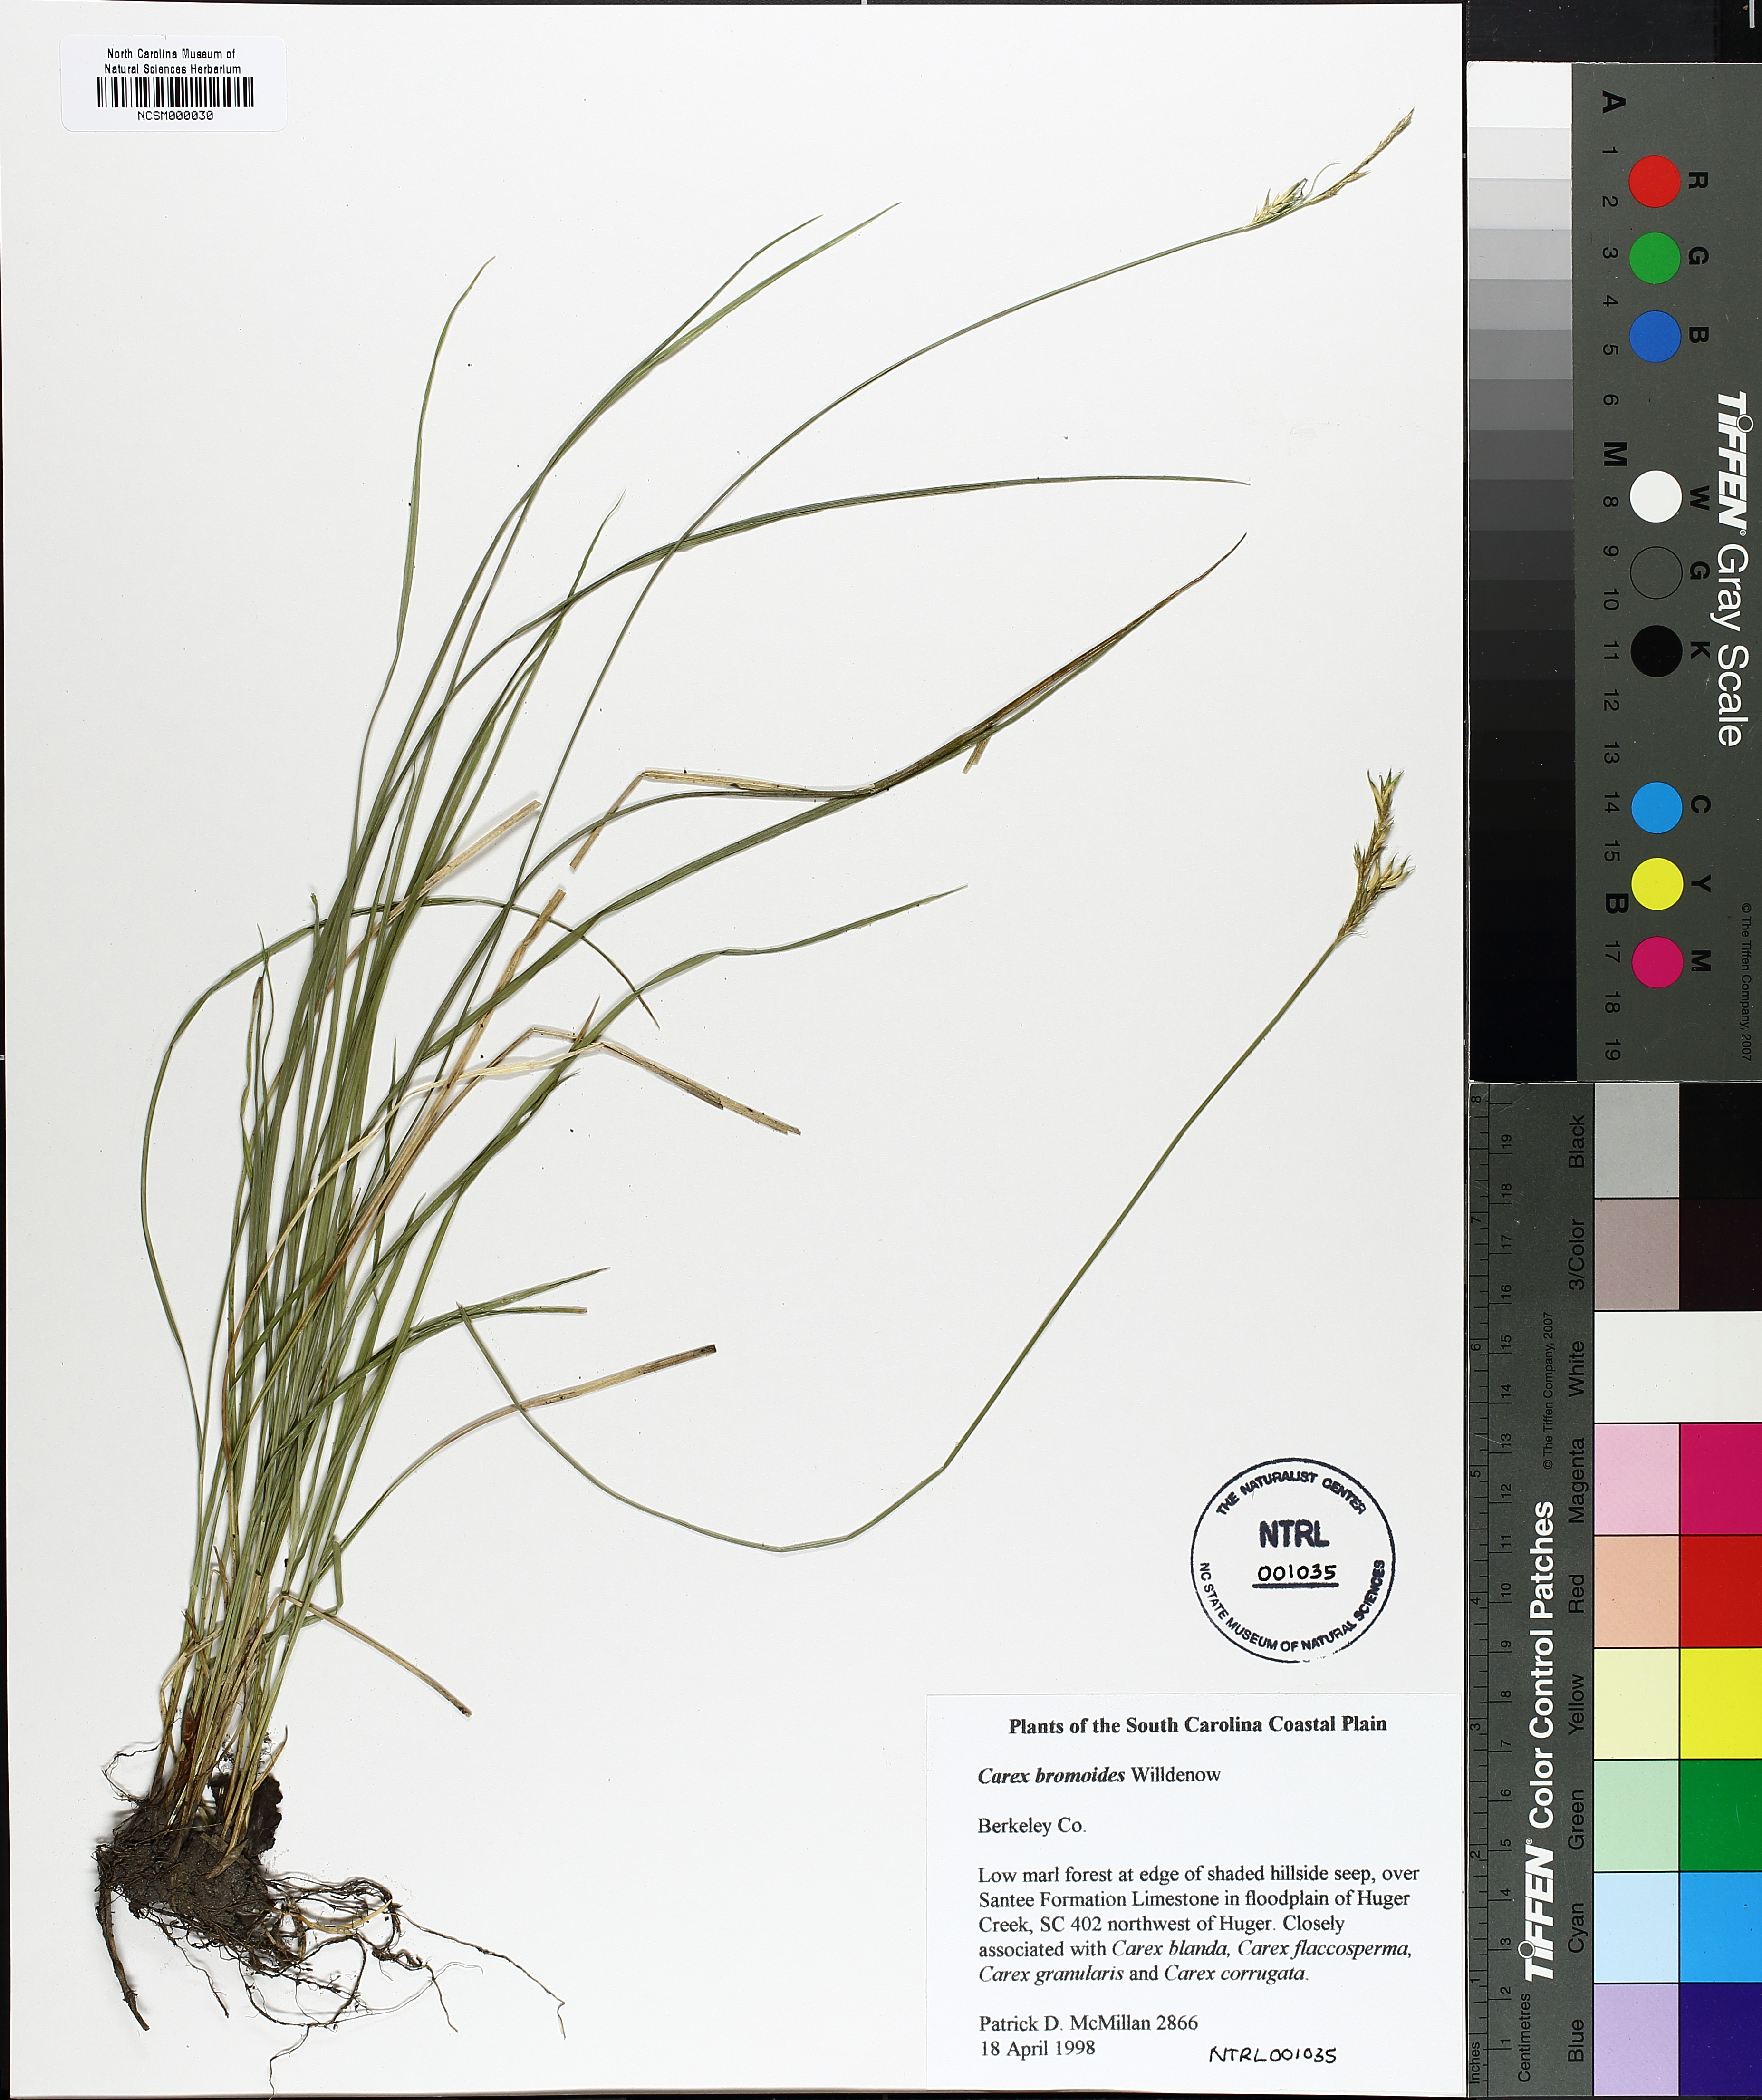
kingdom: Plantae
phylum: Tracheophyta
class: Liliopsida
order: Poales
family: Cyperaceae
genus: Carex
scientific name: Carex bromoides
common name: Brome hummock sedge
